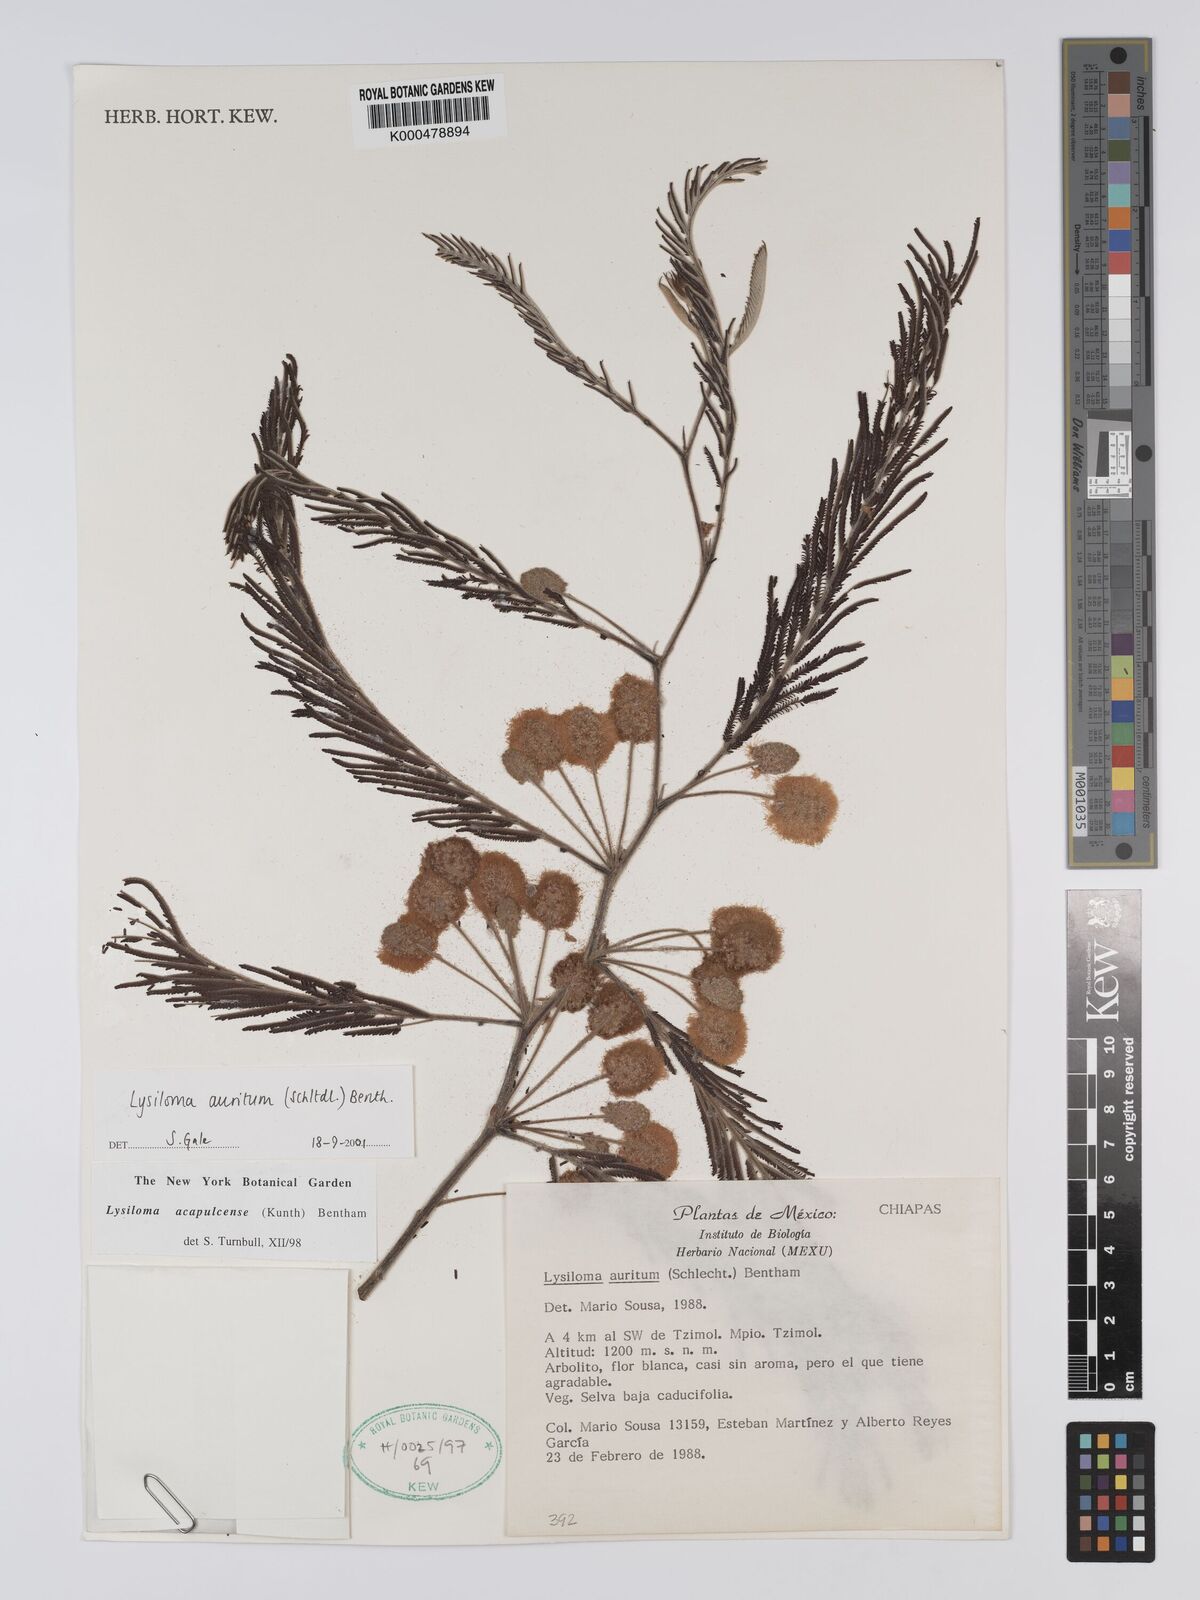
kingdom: Plantae
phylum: Tracheophyta
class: Magnoliopsida
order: Fabales
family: Fabaceae
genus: Lysiloma
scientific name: Lysiloma auritum
